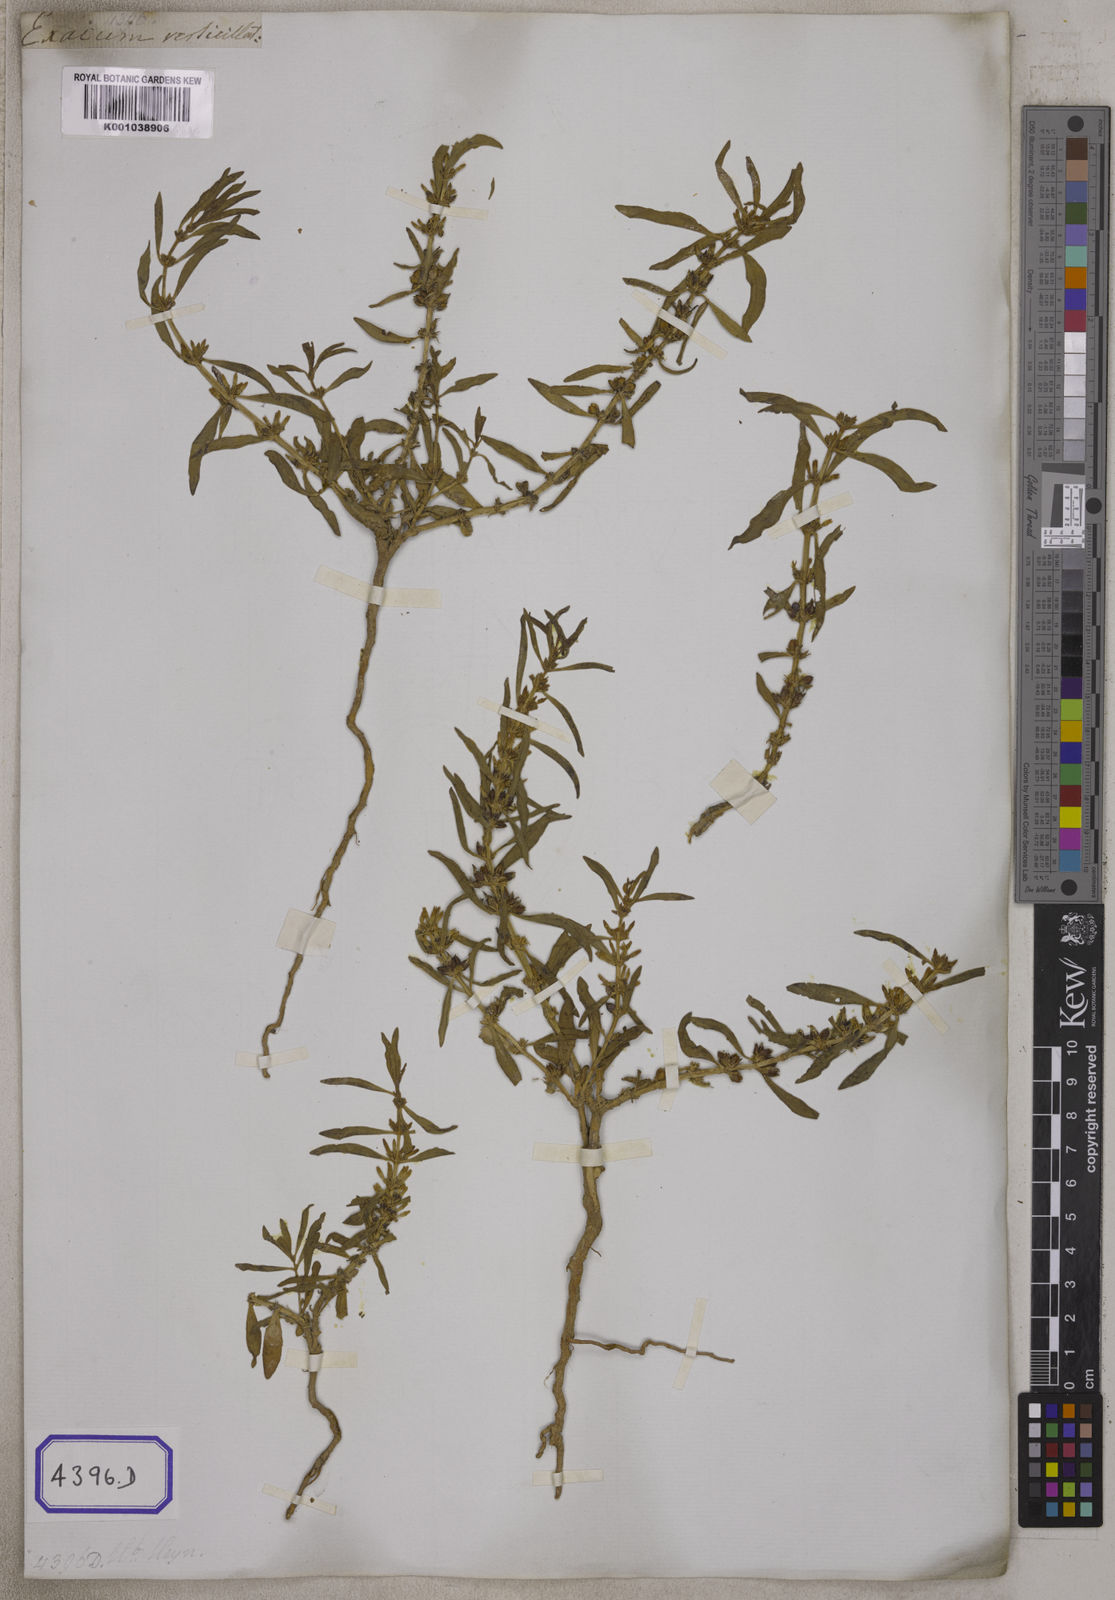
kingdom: Plantae
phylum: Tracheophyta
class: Magnoliopsida
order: Gentianales
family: Gentianaceae
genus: Enicostema
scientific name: Enicostema verticillatum
